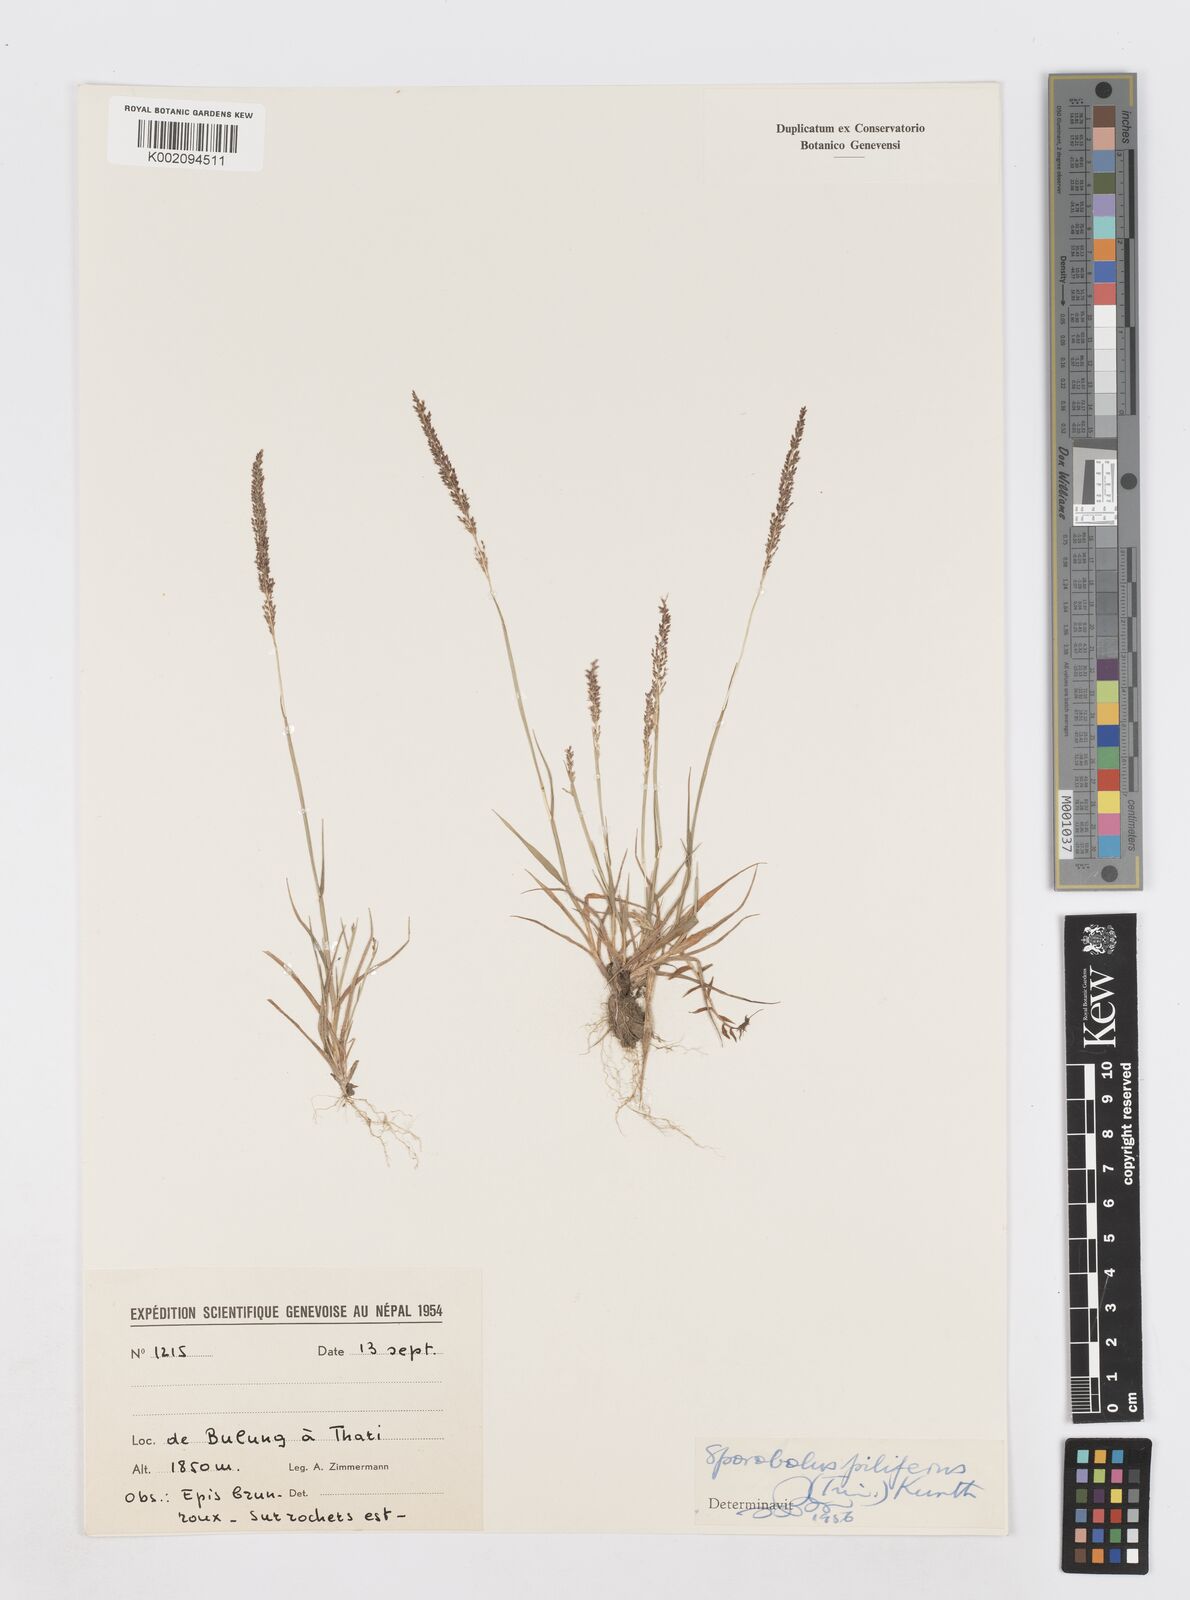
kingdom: Plantae
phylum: Tracheophyta
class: Liliopsida
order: Poales
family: Poaceae
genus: Sporobolus
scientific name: Sporobolus pilifer
